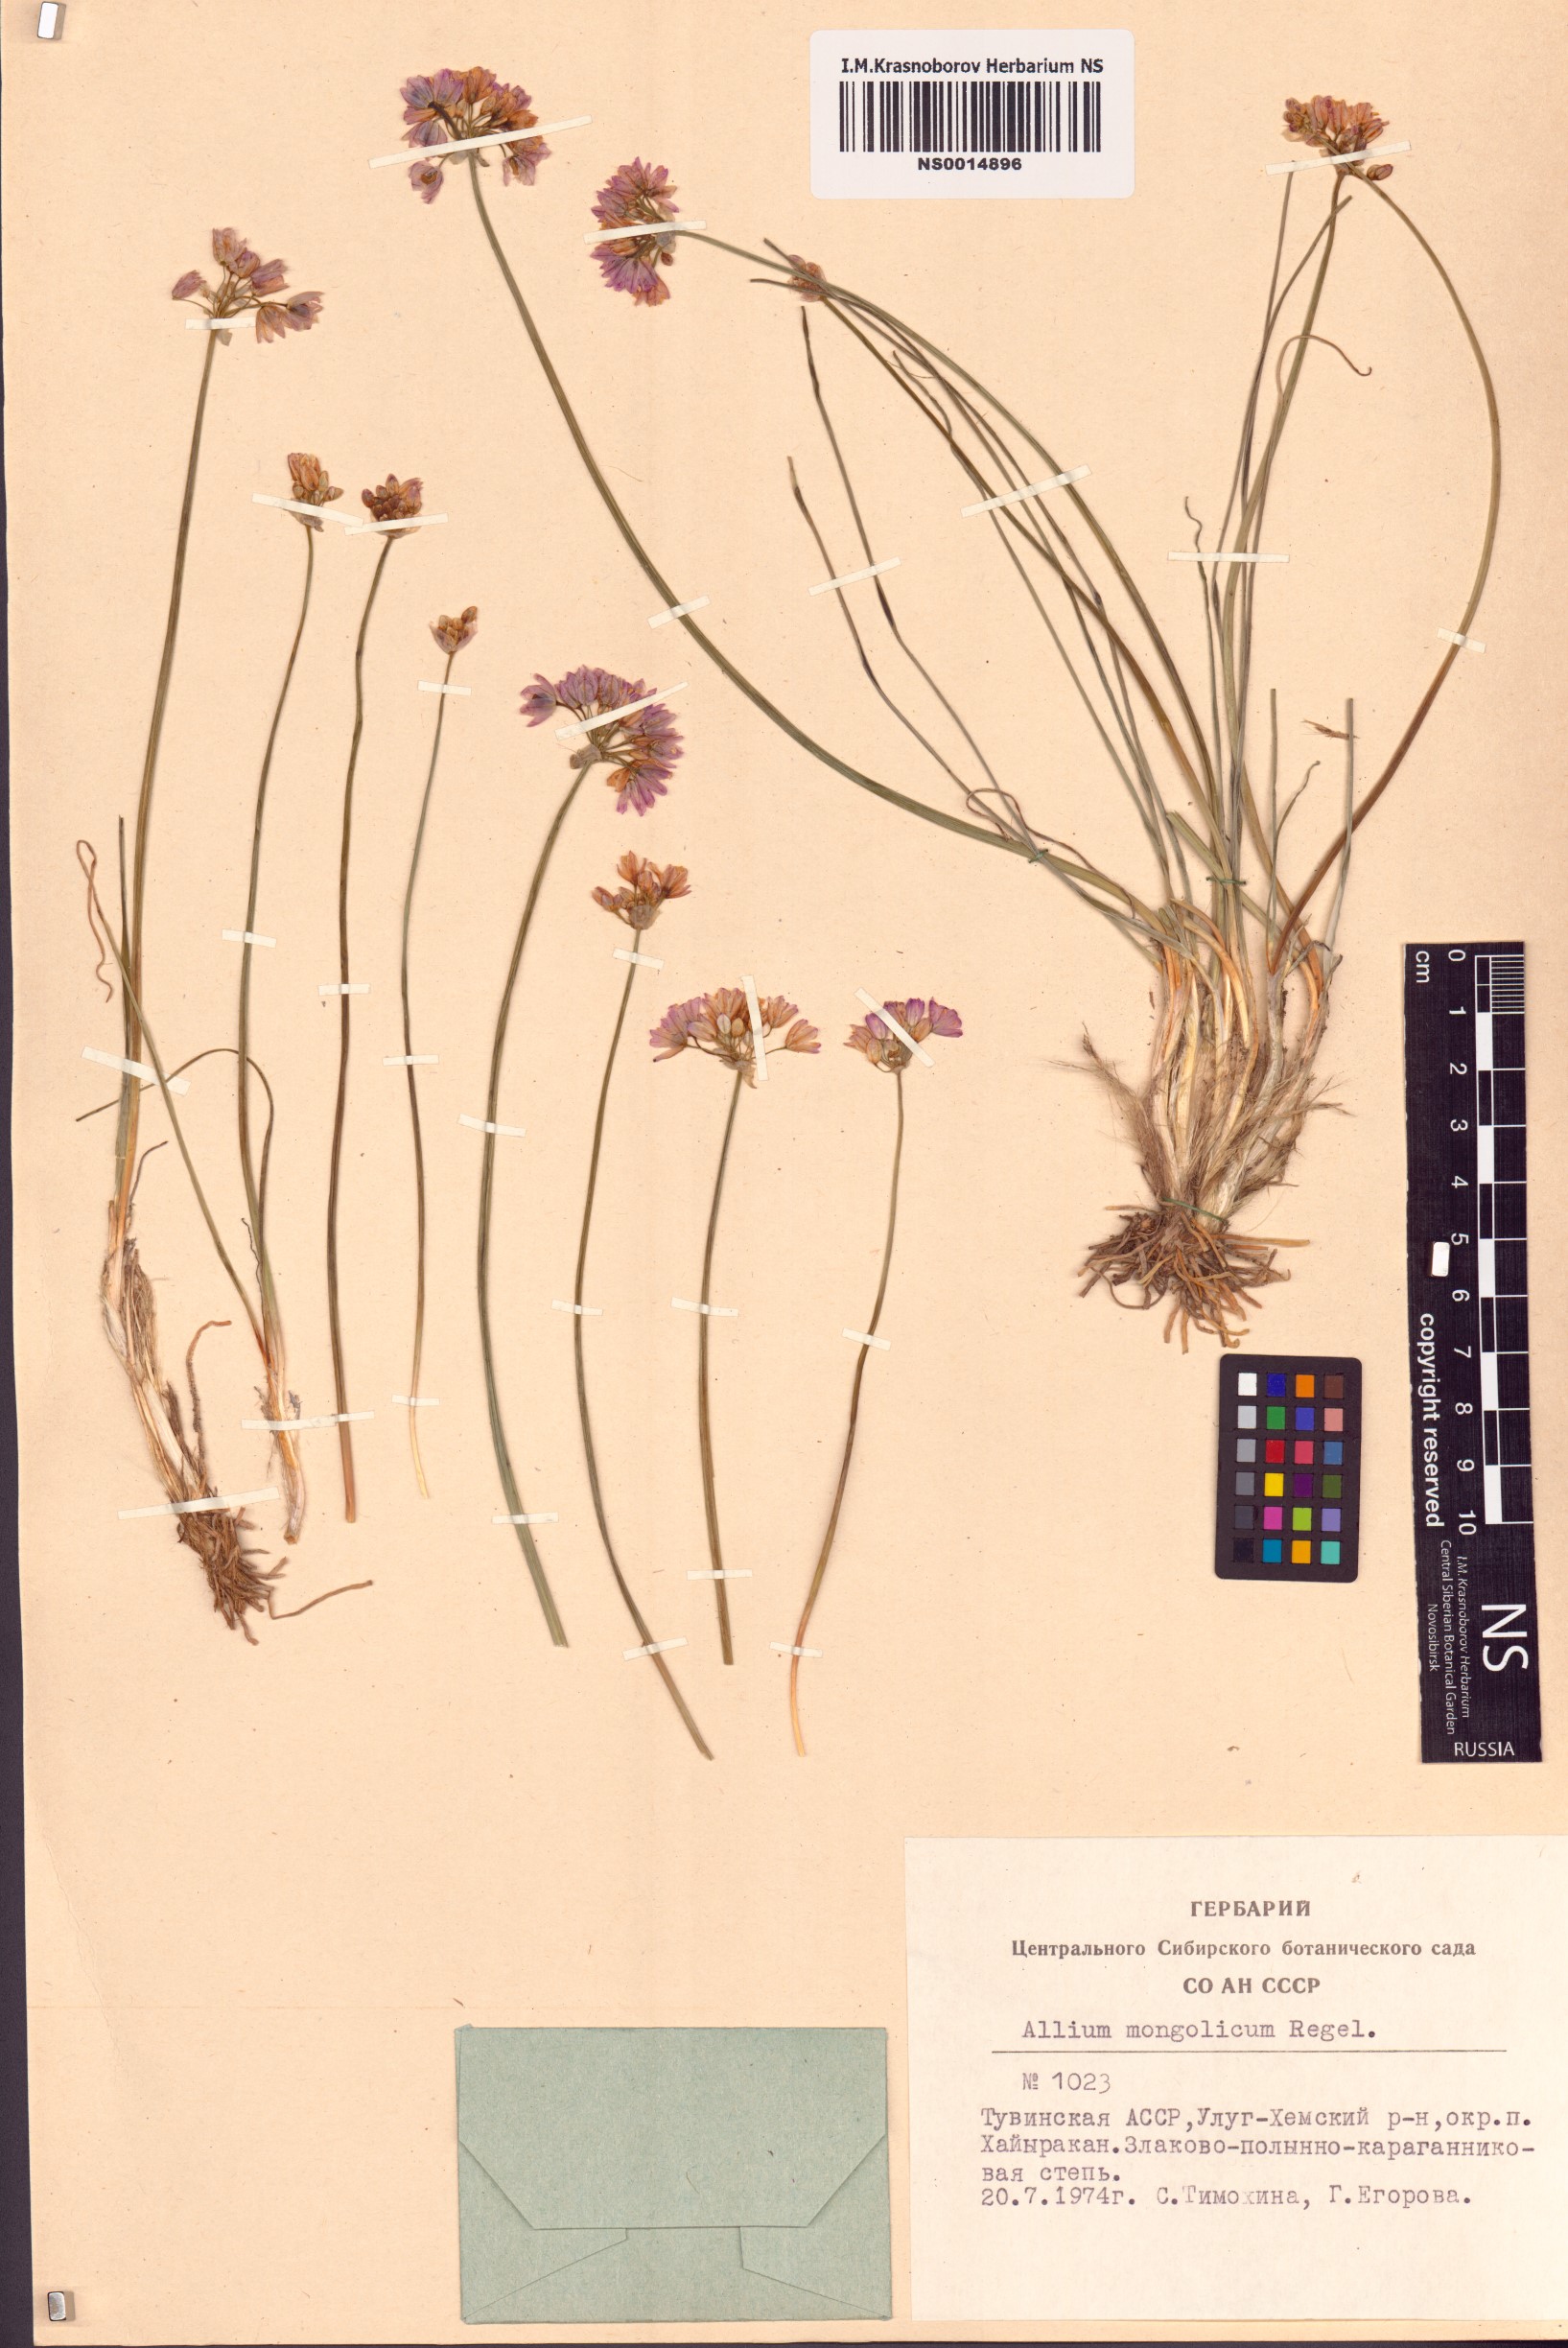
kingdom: Plantae
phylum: Tracheophyta
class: Liliopsida
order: Asparagales
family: Amaryllidaceae
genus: Allium
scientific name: Allium mongolicum
